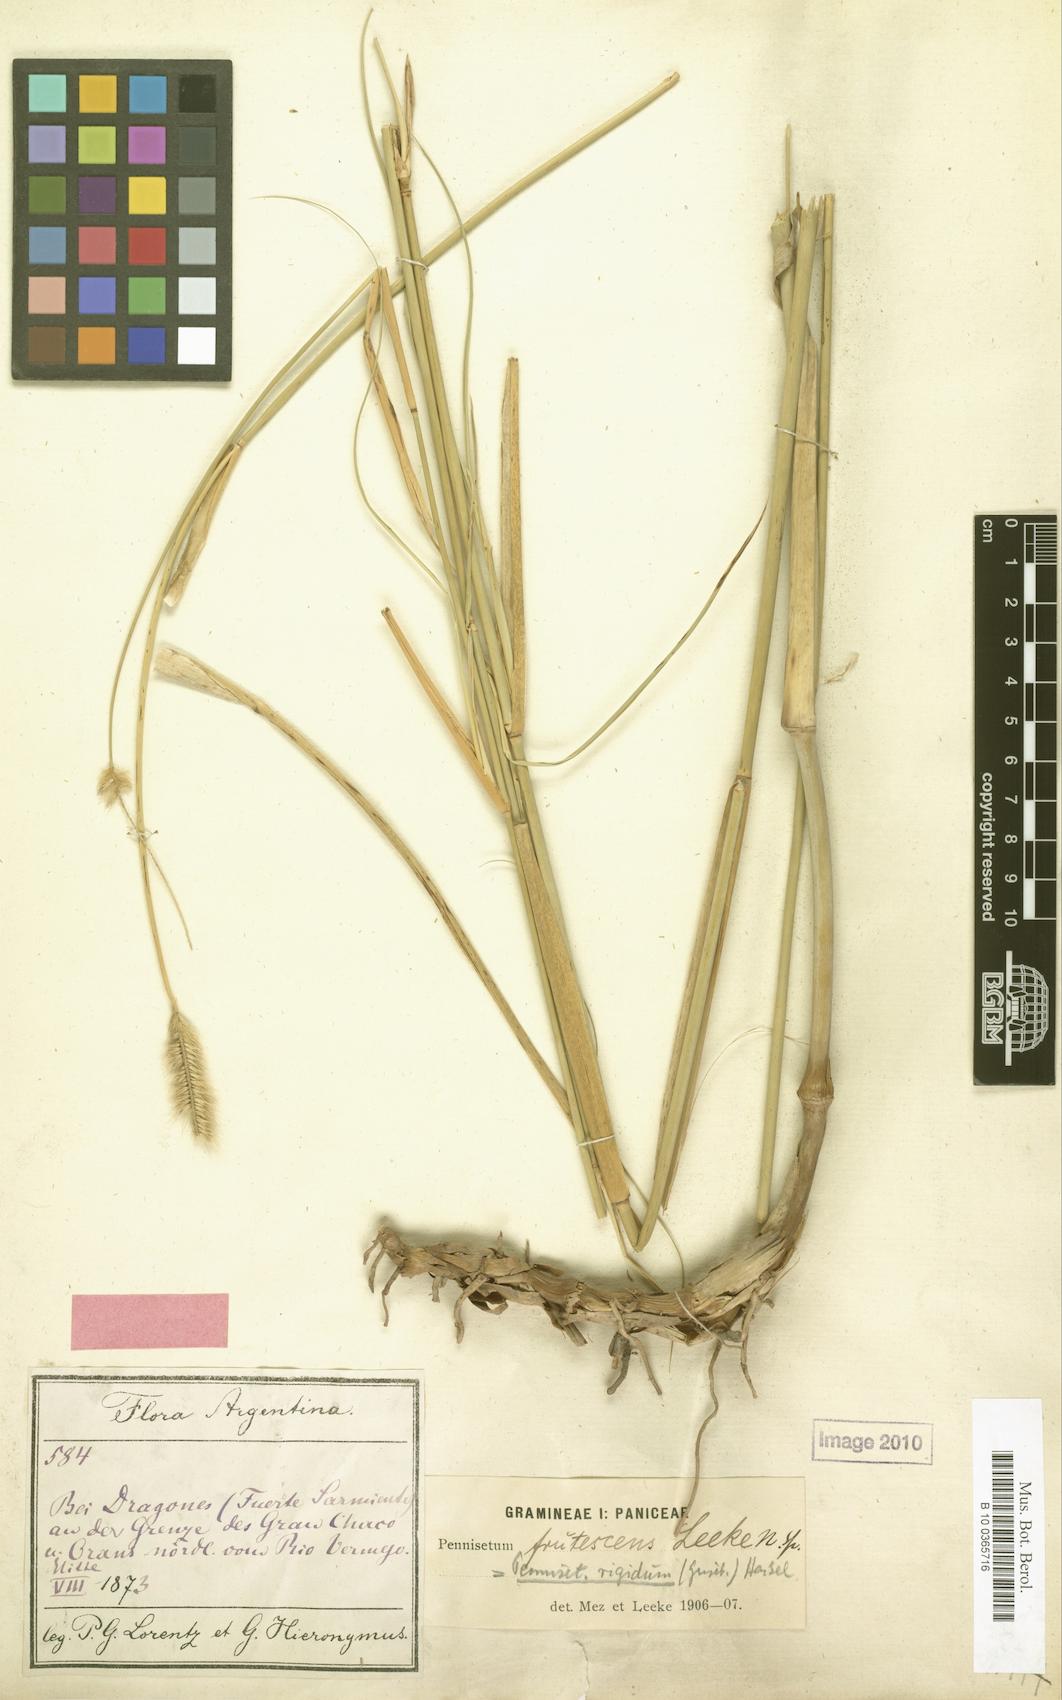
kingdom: Plantae
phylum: Tracheophyta
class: Liliopsida
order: Poales
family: Poaceae
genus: Cenchrus
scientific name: Cenchrus pilcomayensis
